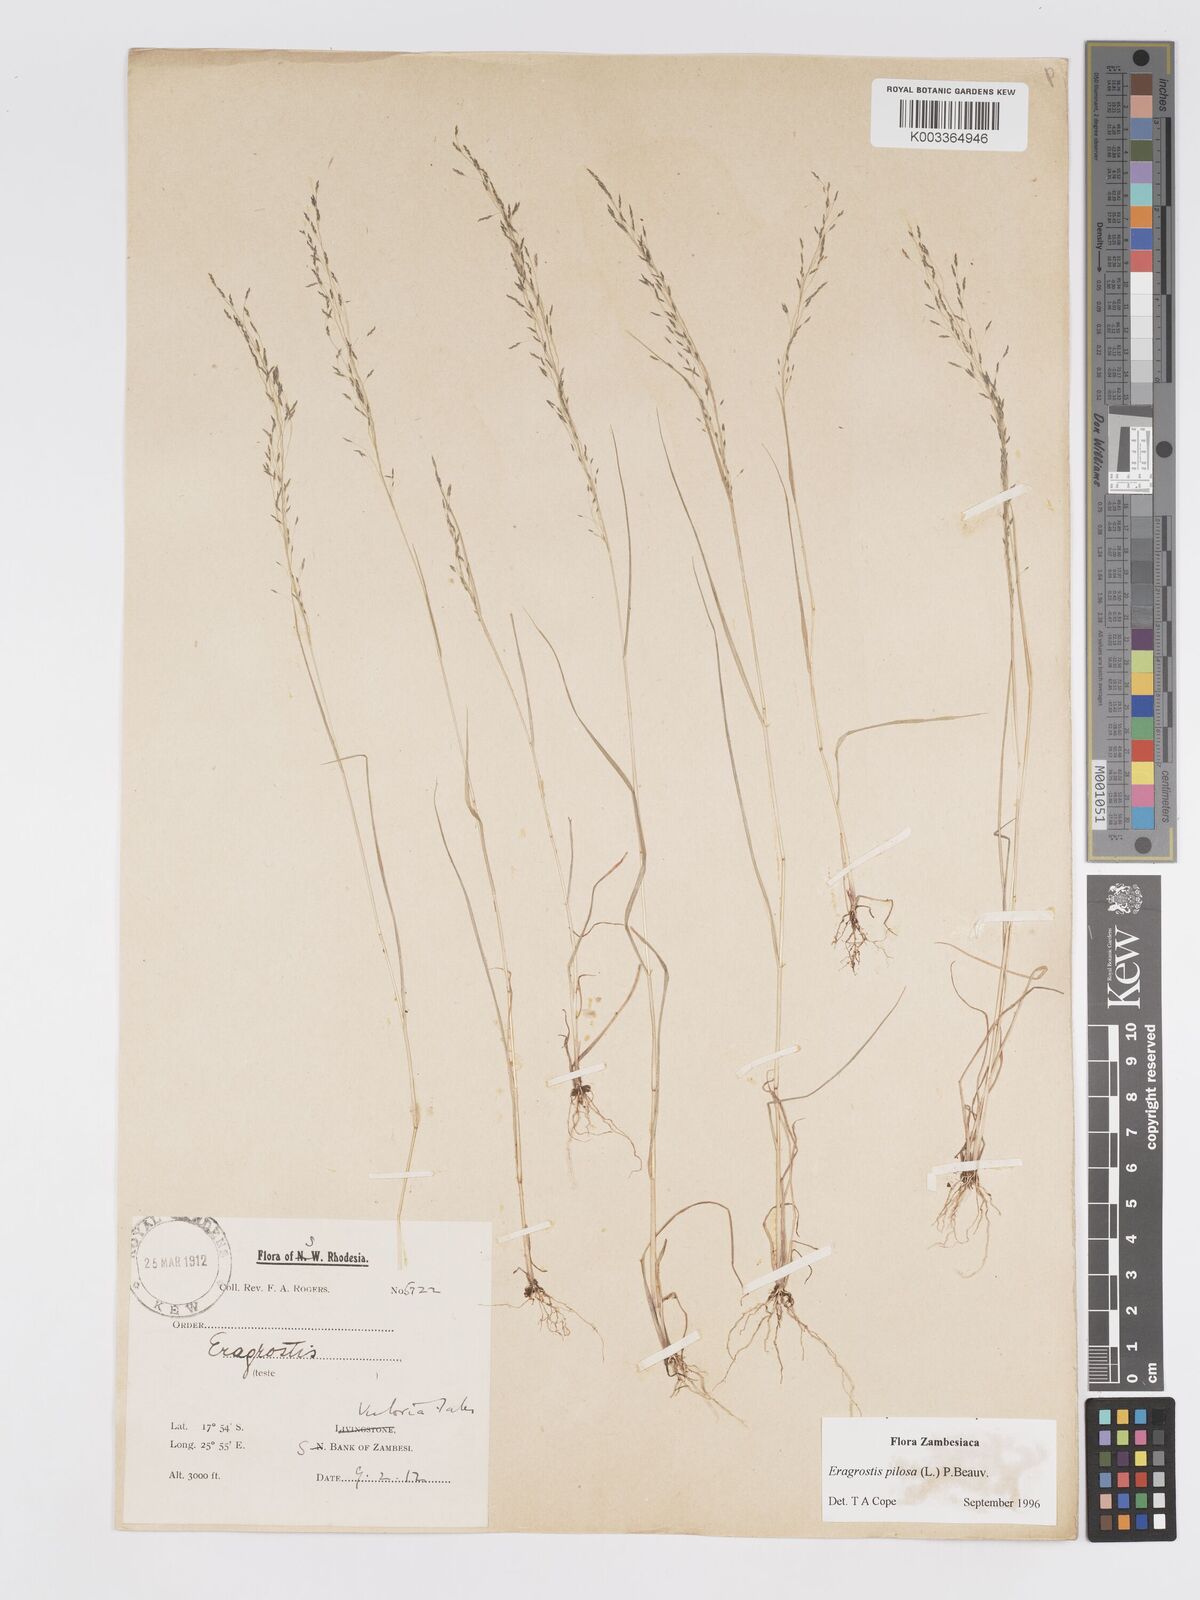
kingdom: Plantae
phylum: Tracheophyta
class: Liliopsida
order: Poales
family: Poaceae
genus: Eragrostis
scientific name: Eragrostis pilosa
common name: Indian lovegrass
